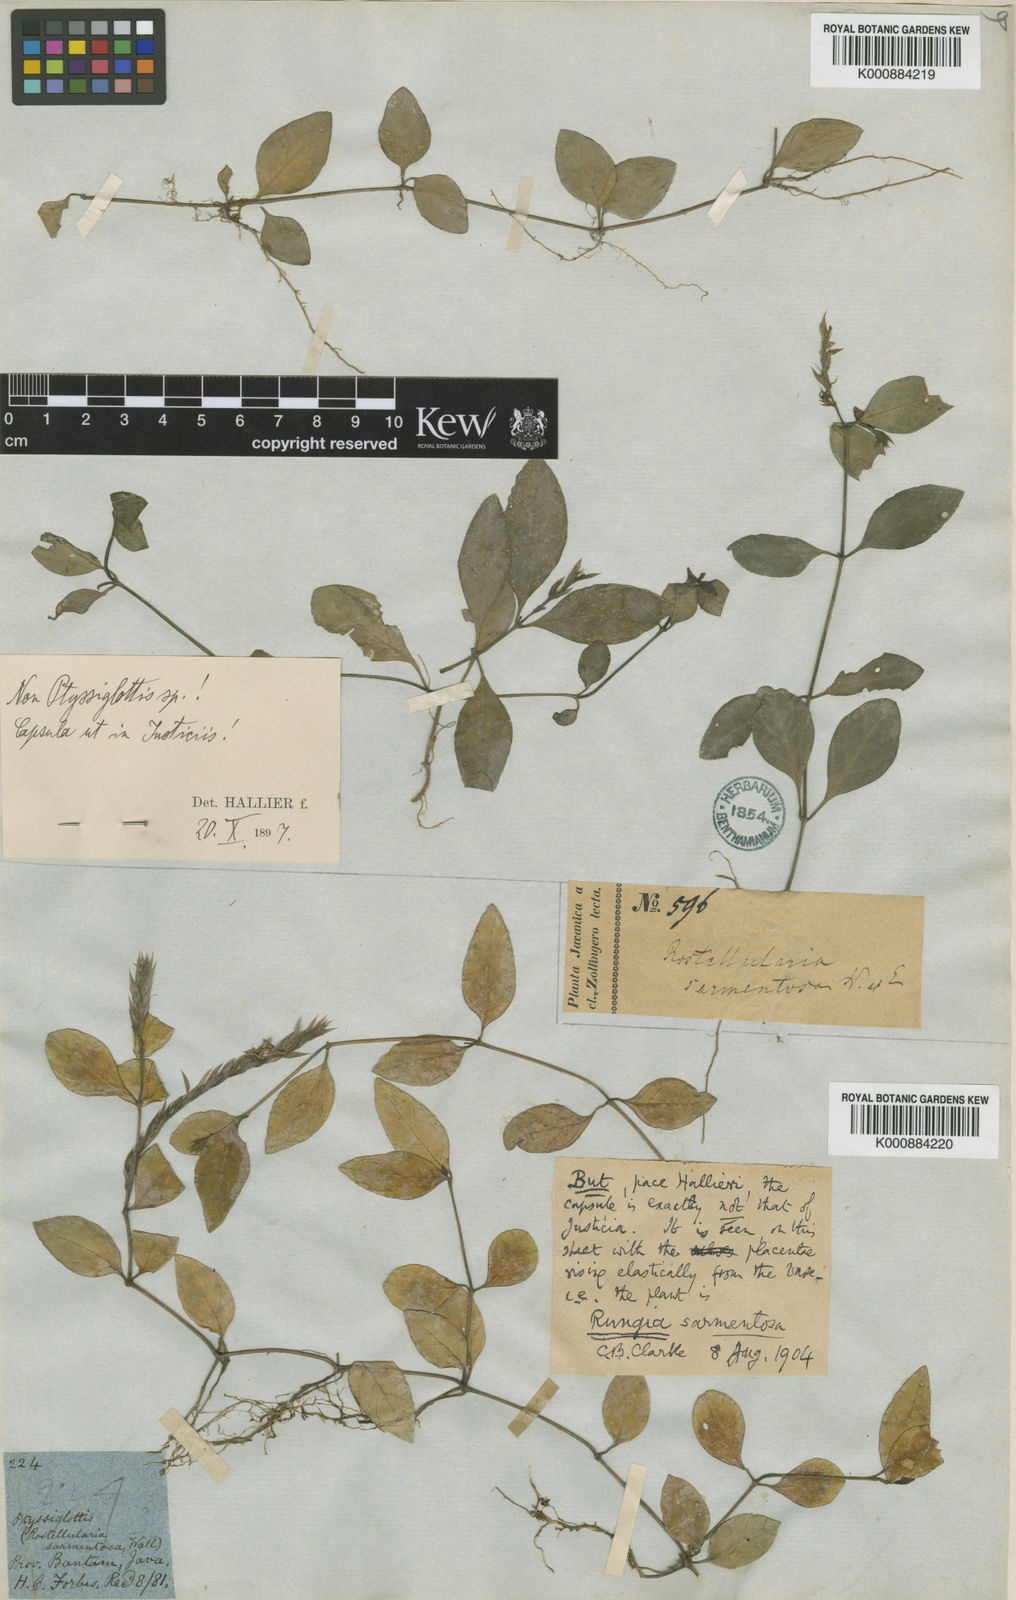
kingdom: Plantae
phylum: Tracheophyta
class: Magnoliopsida
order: Lamiales
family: Acanthaceae
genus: Justicia
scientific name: Justicia sarmentosa
